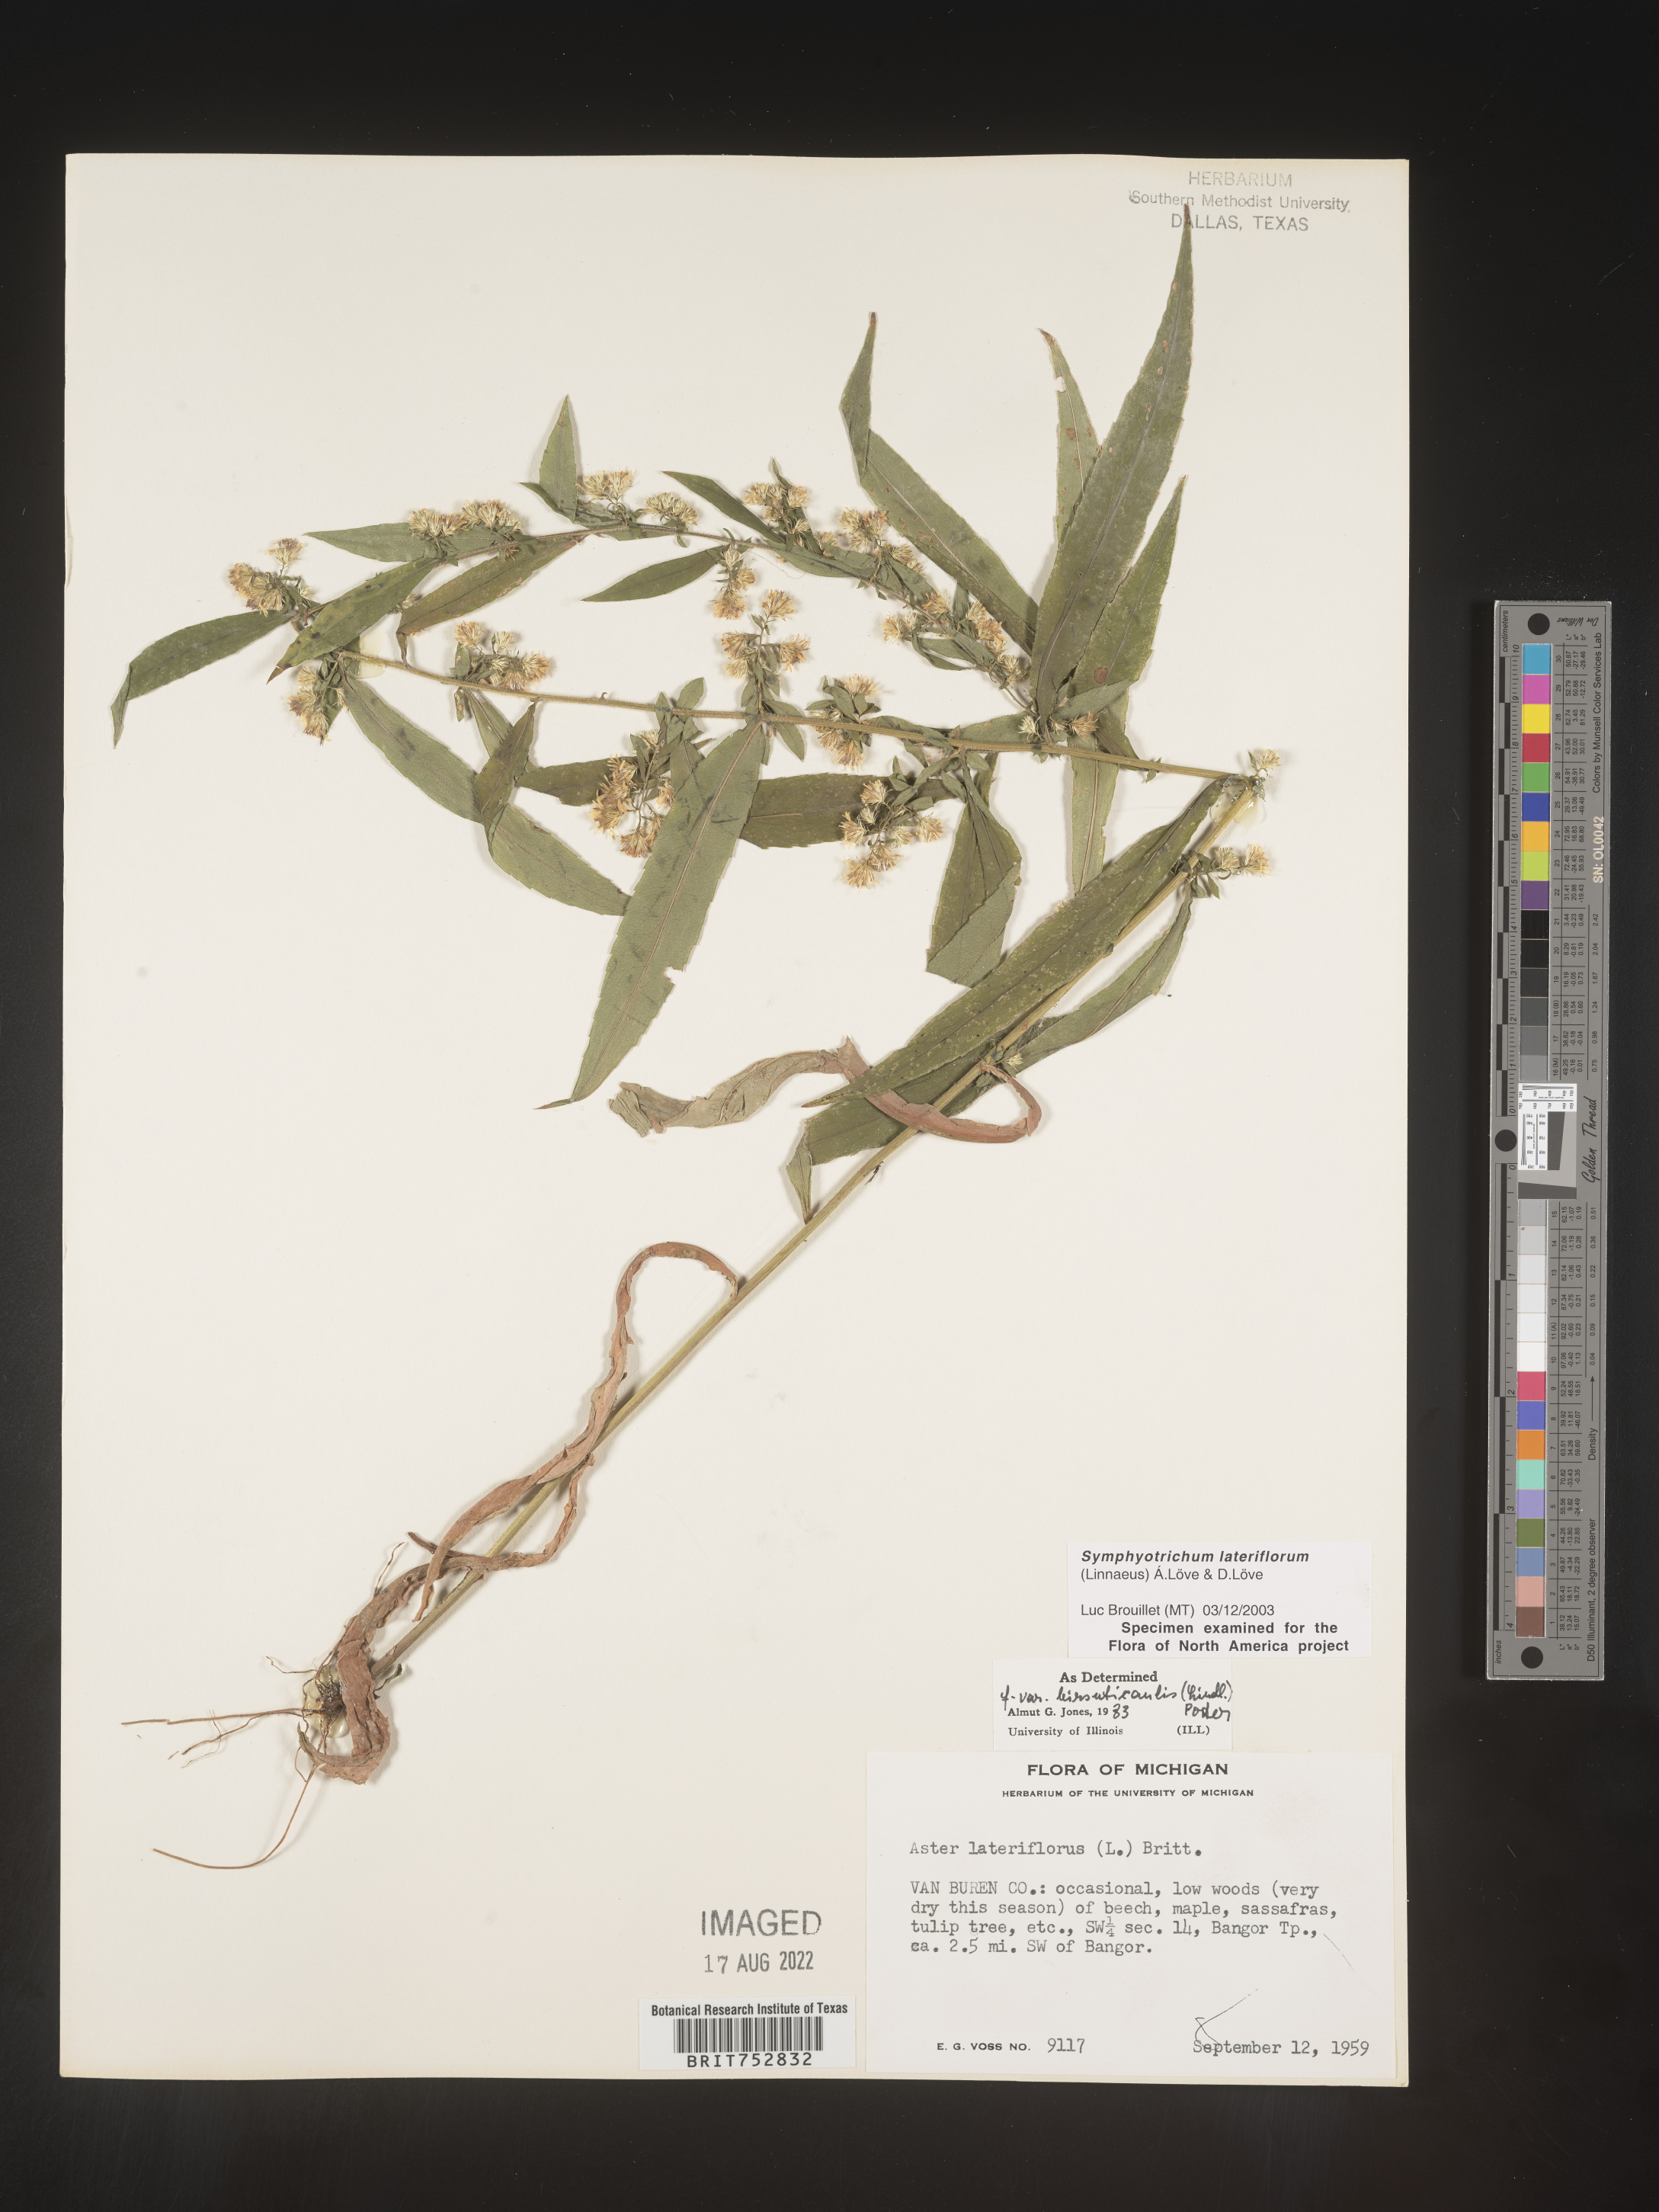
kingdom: Plantae
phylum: Tracheophyta
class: Magnoliopsida
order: Asterales
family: Asteraceae
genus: Symphyotrichum
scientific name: Symphyotrichum lateriflorum
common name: Calico aster
